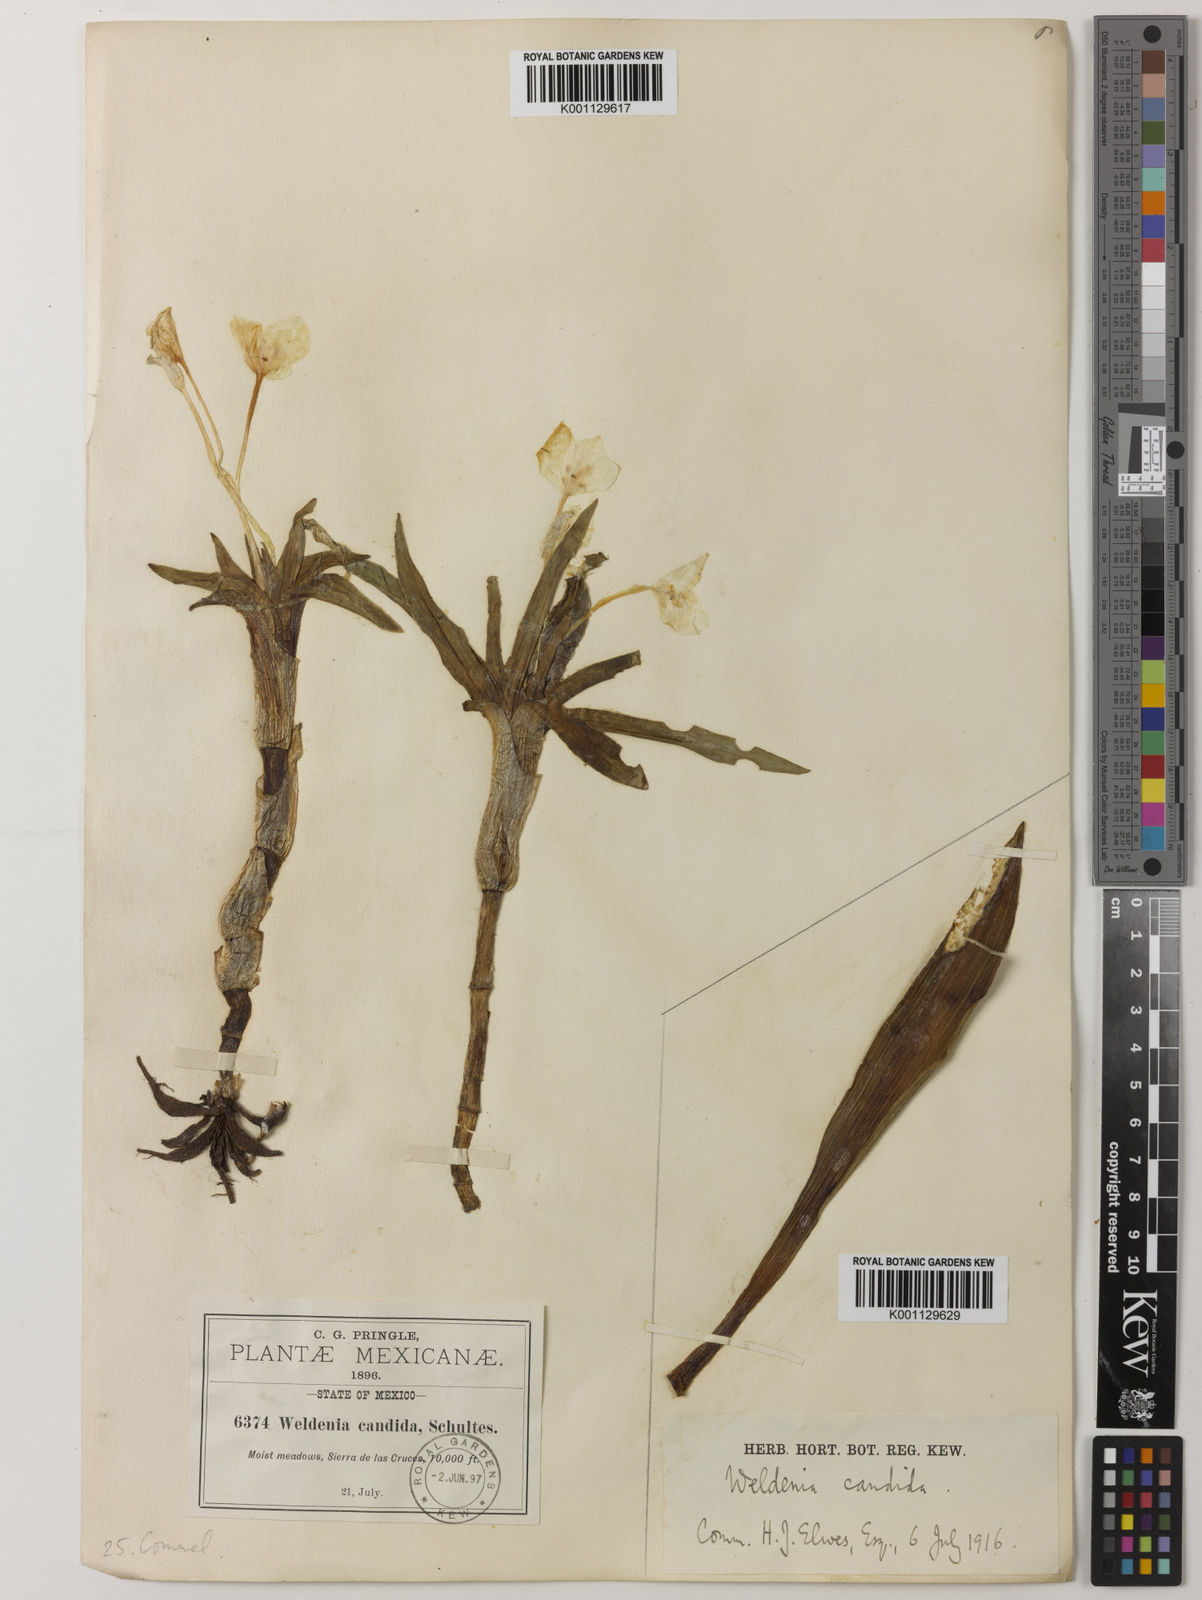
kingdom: Plantae
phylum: Tracheophyta
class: Liliopsida
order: Commelinales
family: Commelinaceae
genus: Weldenia
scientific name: Weldenia candida
